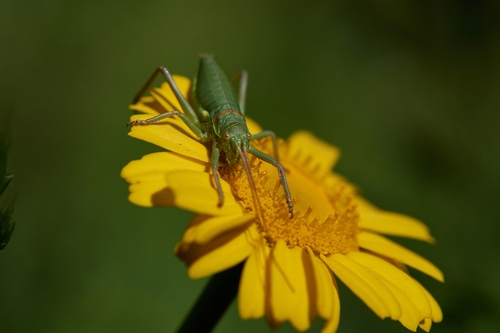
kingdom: Animalia
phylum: Arthropoda
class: Insecta
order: Orthoptera
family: Tettigoniidae
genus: Neocallicrania
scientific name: Neocallicrania selligera
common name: Lusitanian saddle bush-cricket
